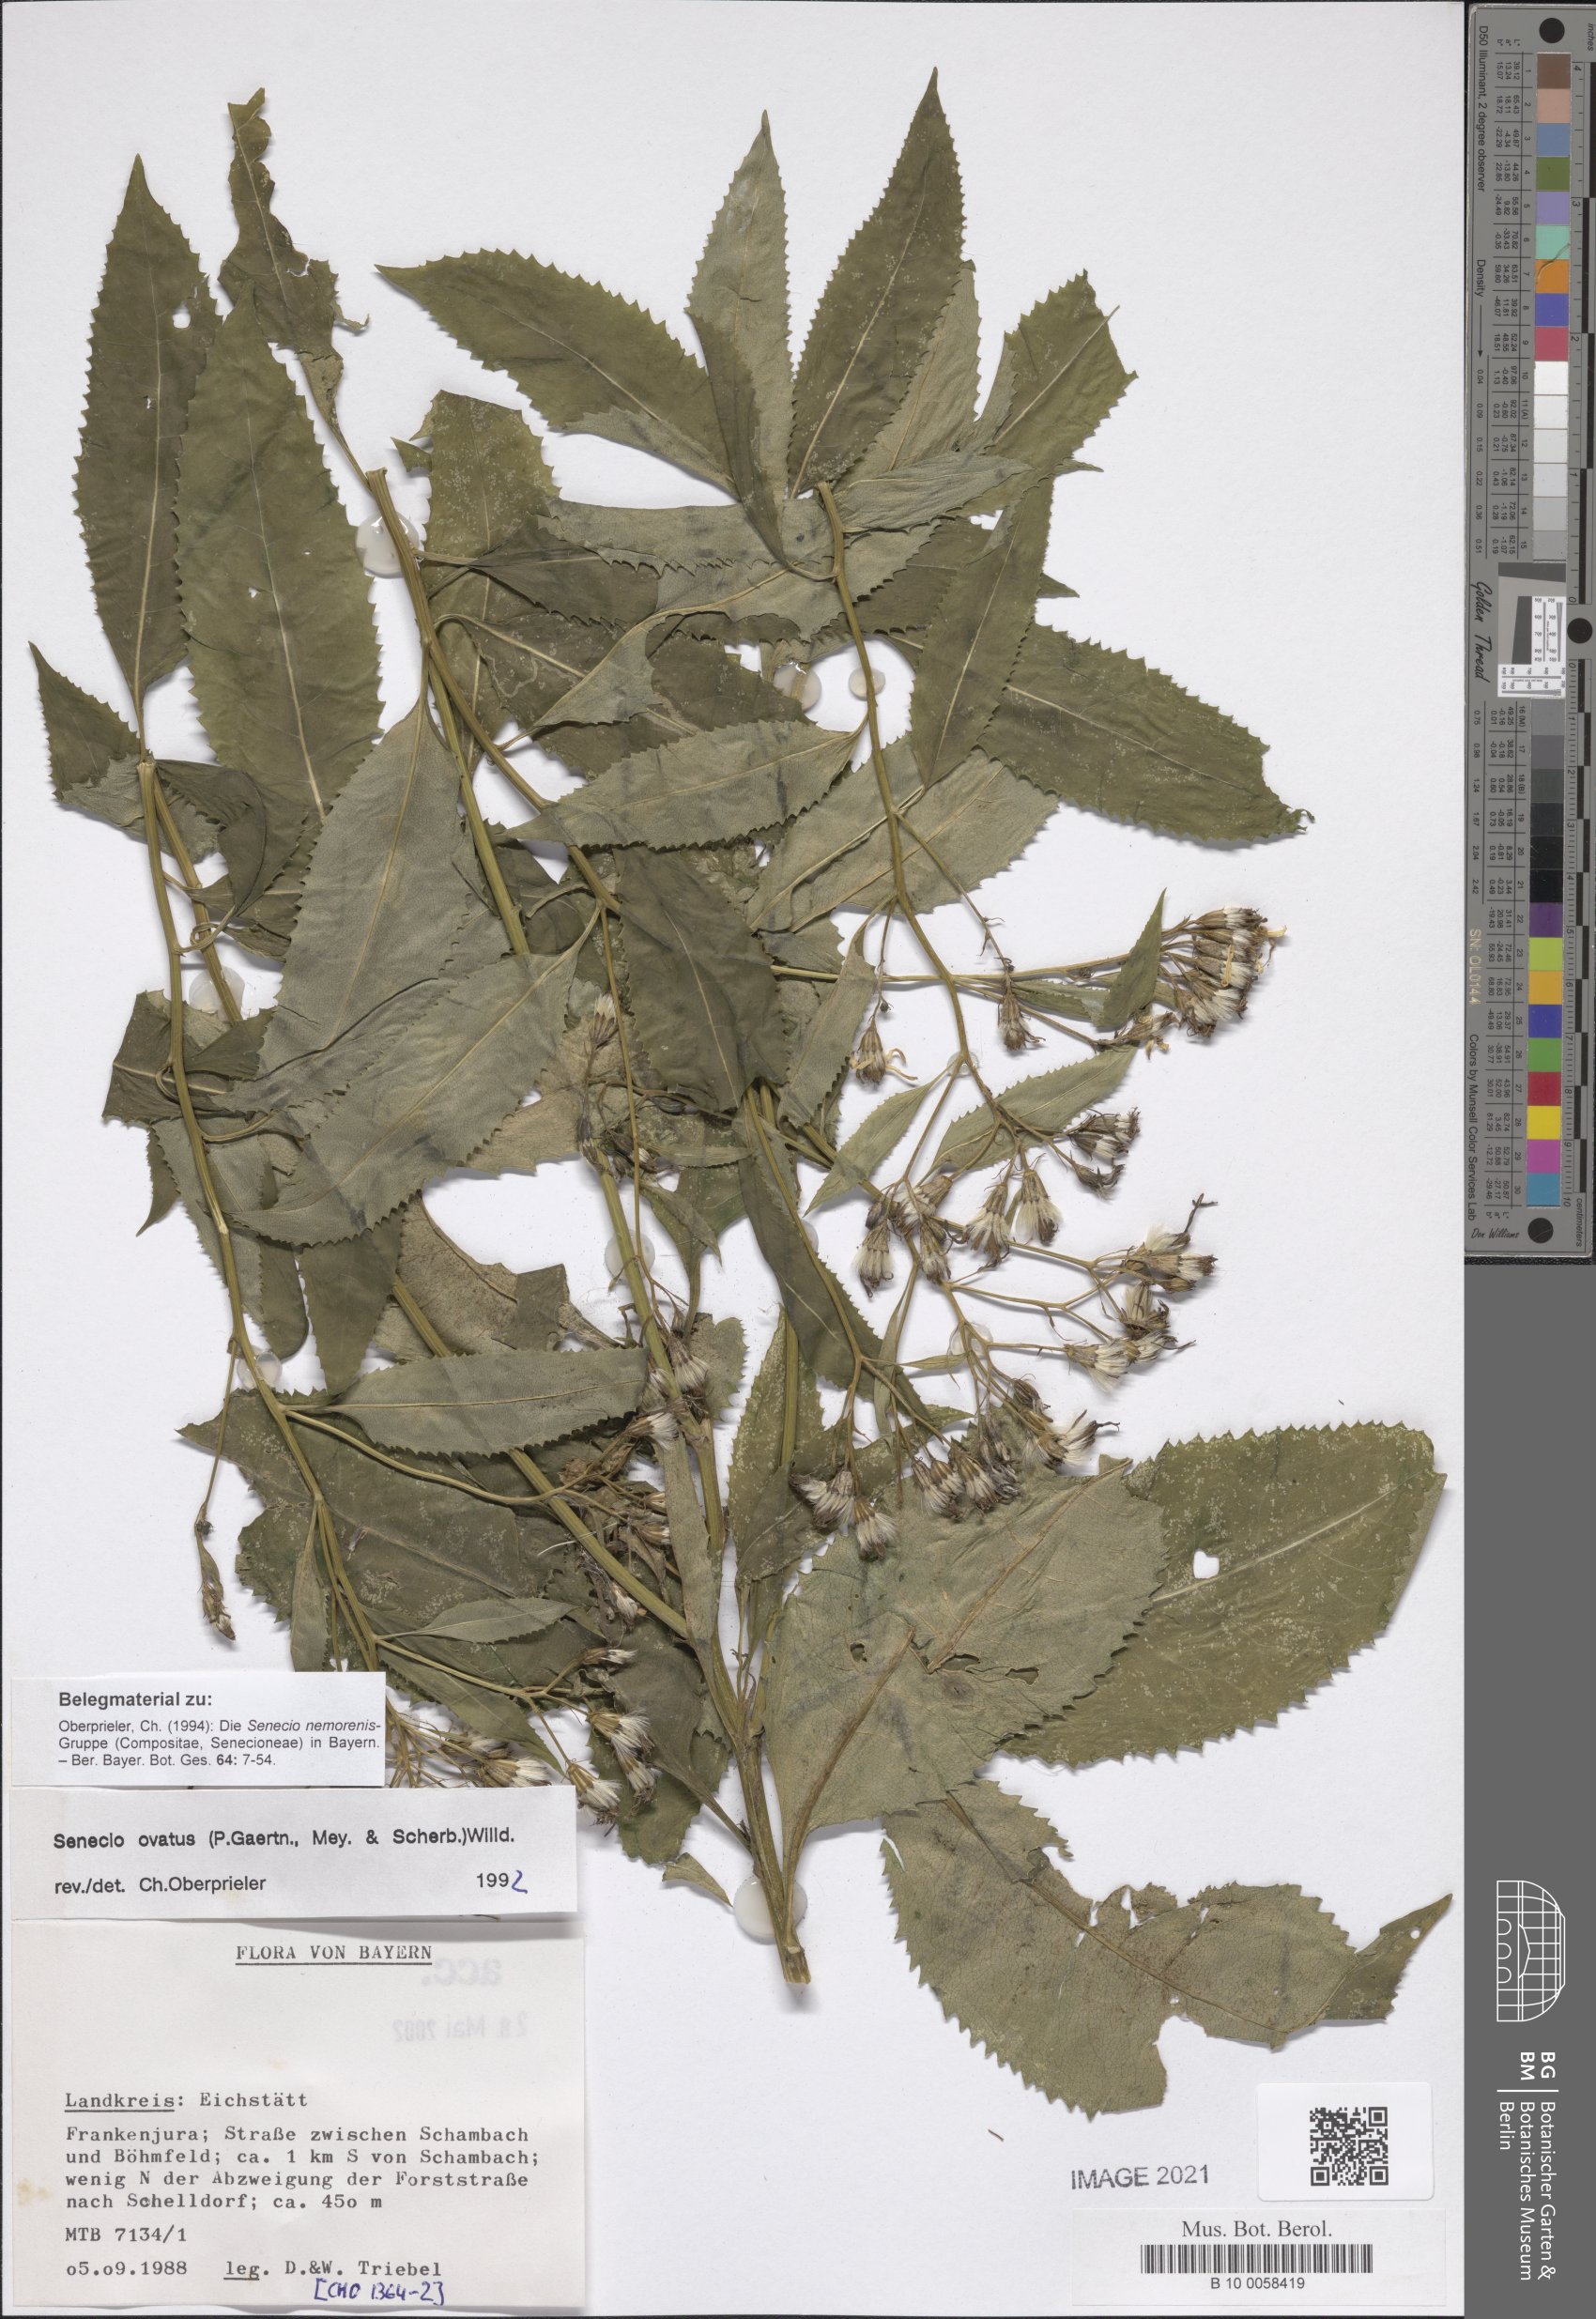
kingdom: Plantae
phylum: Tracheophyta
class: Magnoliopsida
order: Asterales
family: Asteraceae
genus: Senecio
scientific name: Senecio ovatus
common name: Wood ragwort
